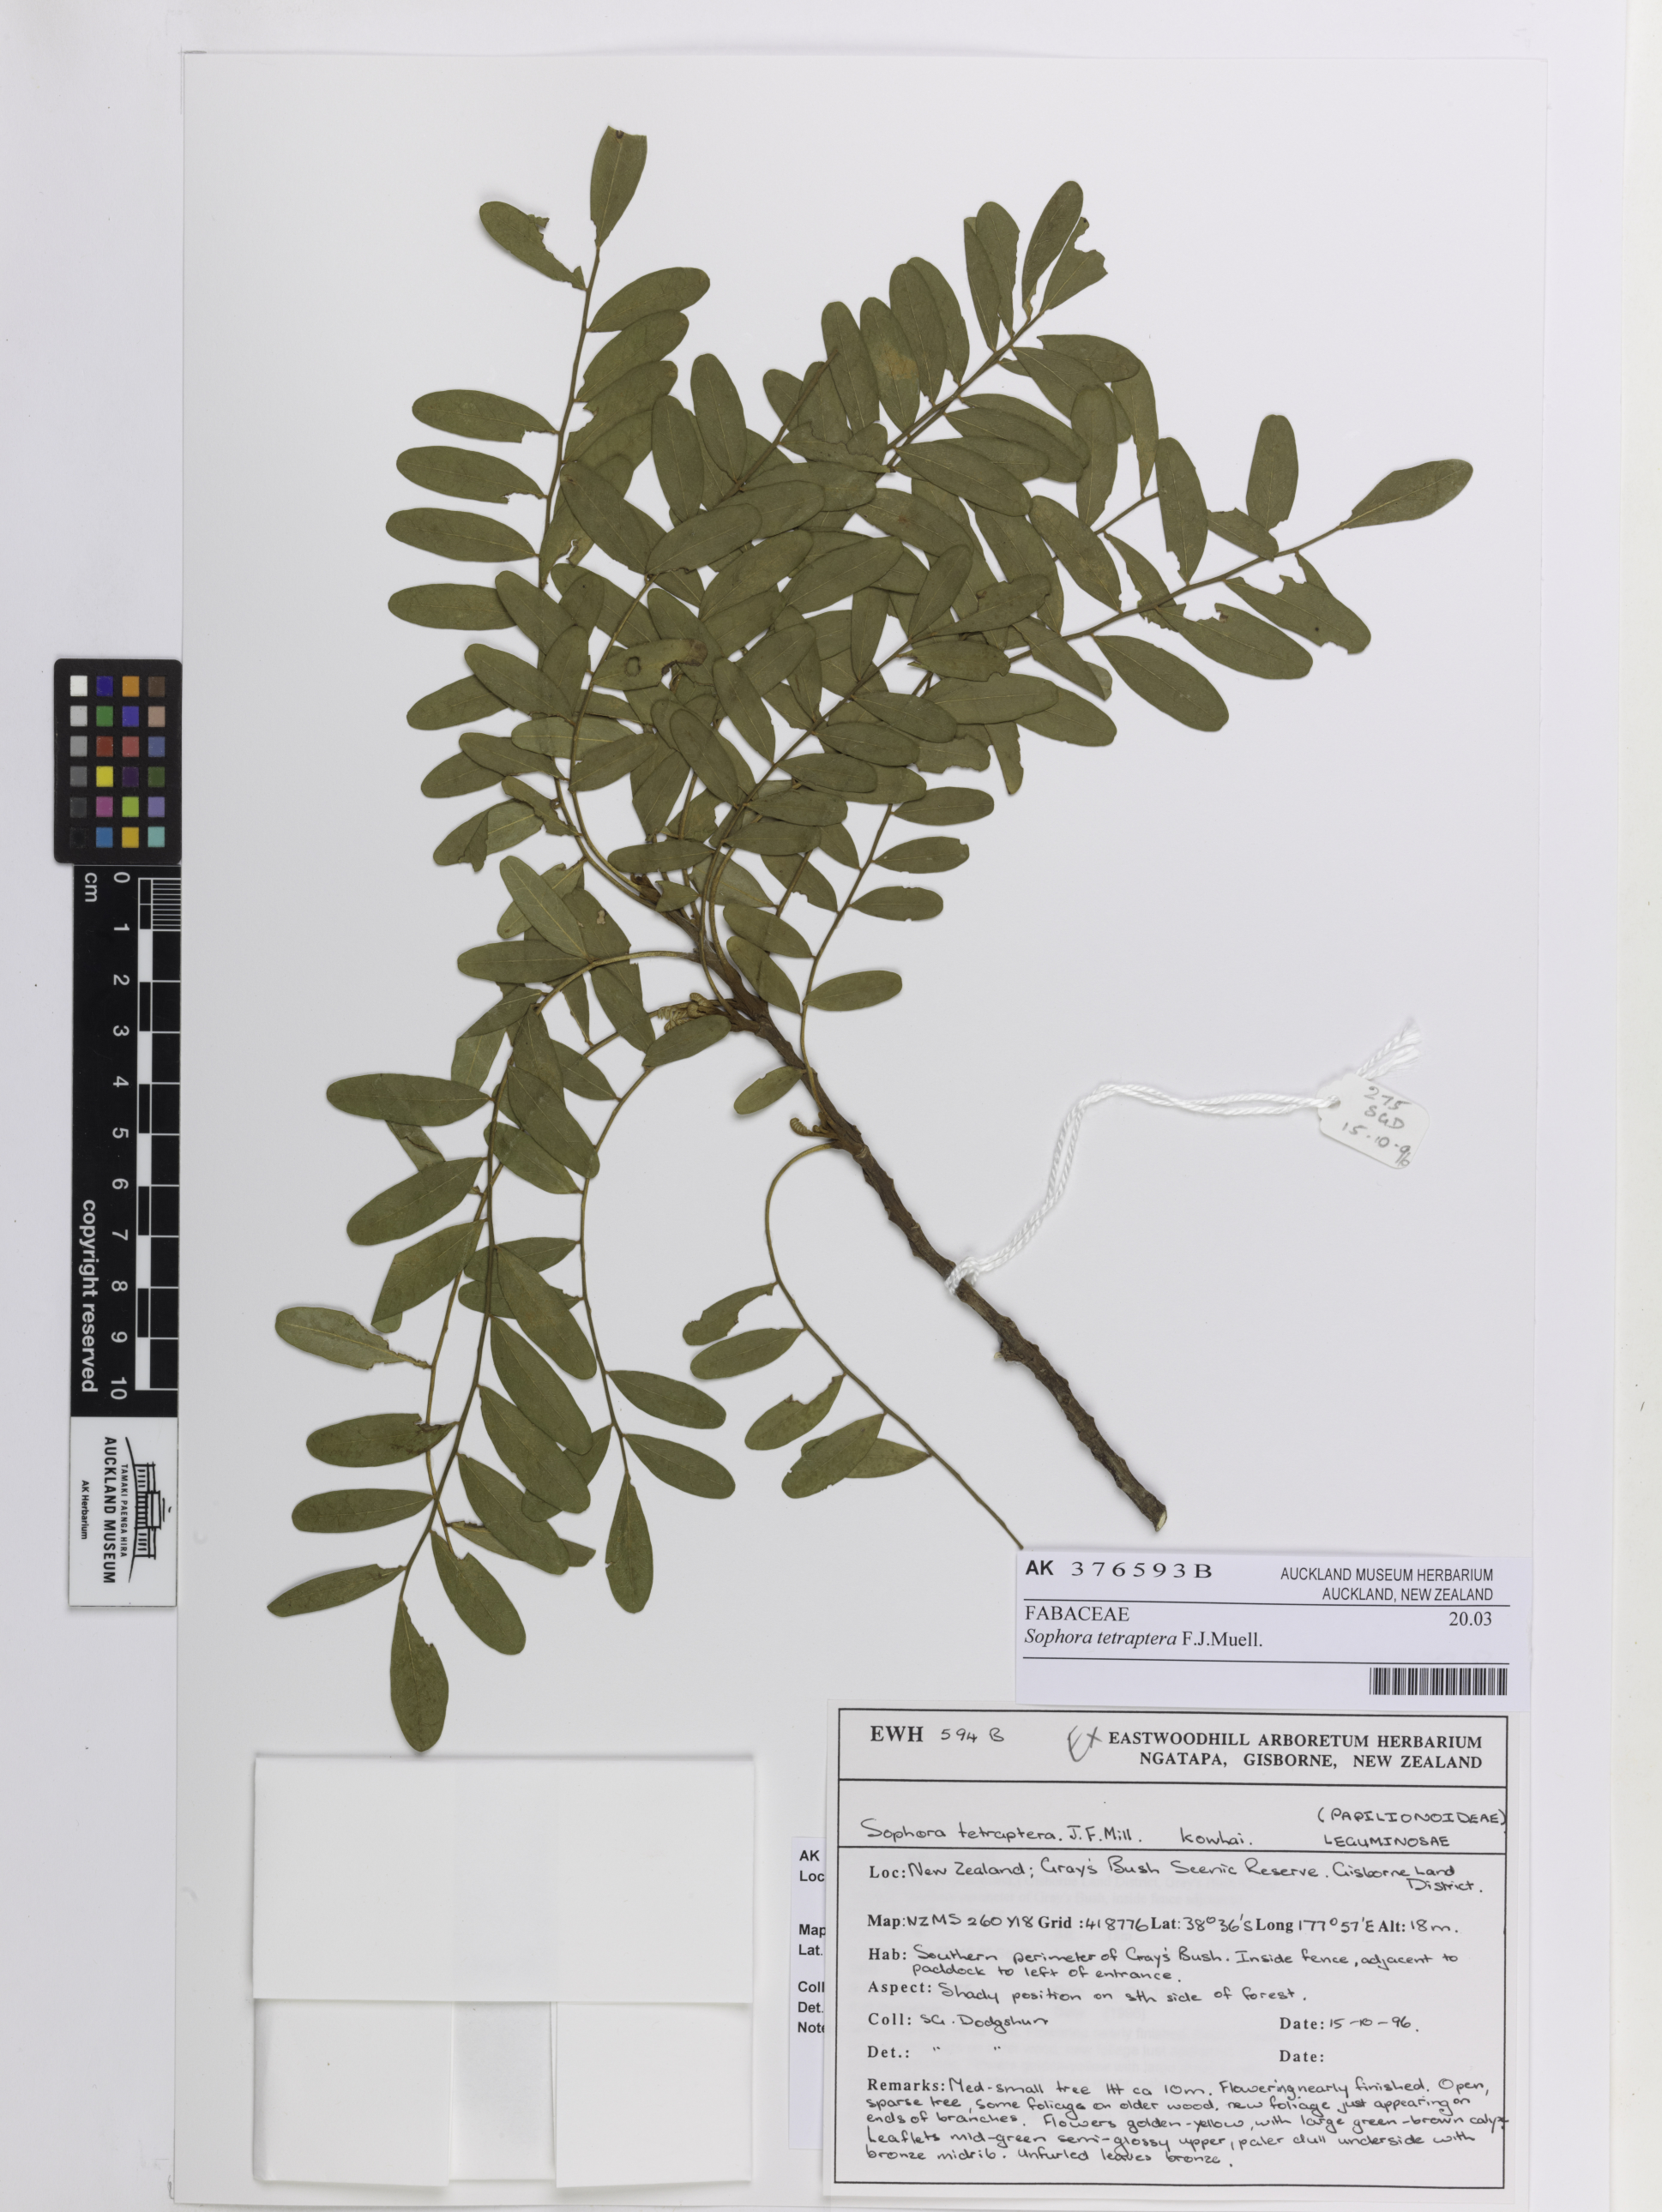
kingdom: Plantae
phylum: Tracheophyta
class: Magnoliopsida
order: Fabales
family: Fabaceae
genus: Sophora
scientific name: Sophora tetraptera
